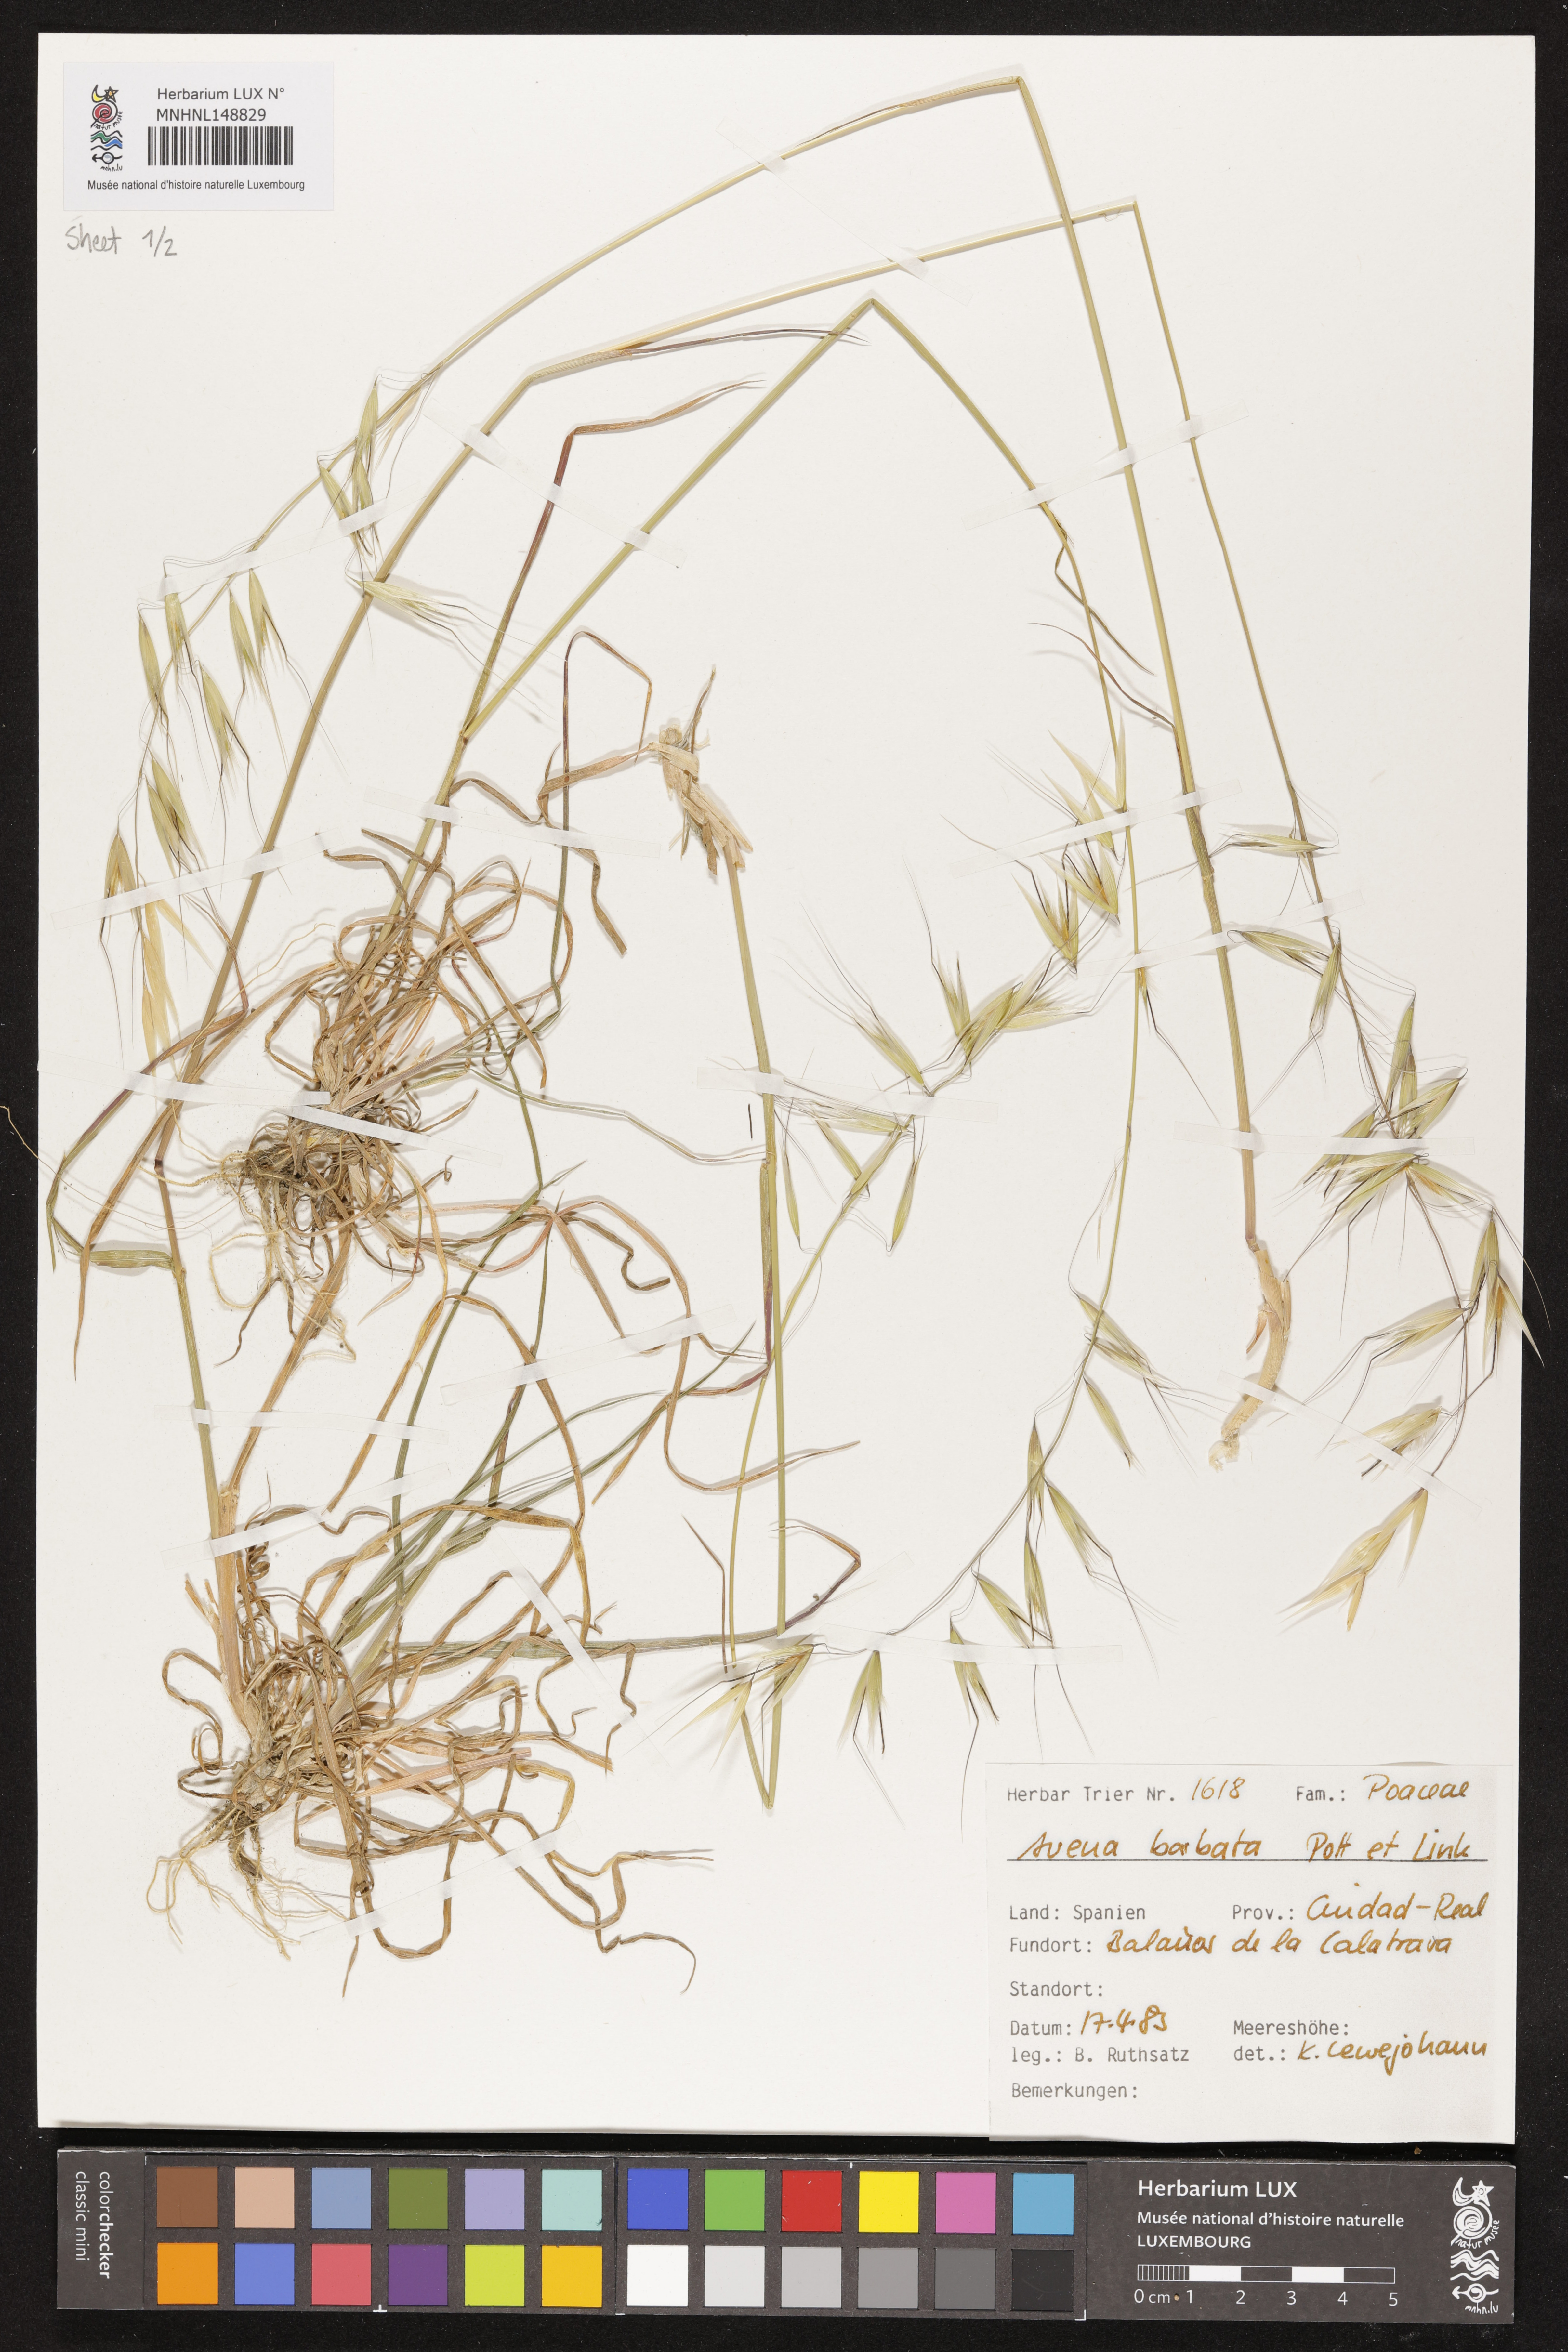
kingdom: Plantae
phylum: Tracheophyta
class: Liliopsida
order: Poales
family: Poaceae
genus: Avena
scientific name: Avena barbata
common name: Slender oat
